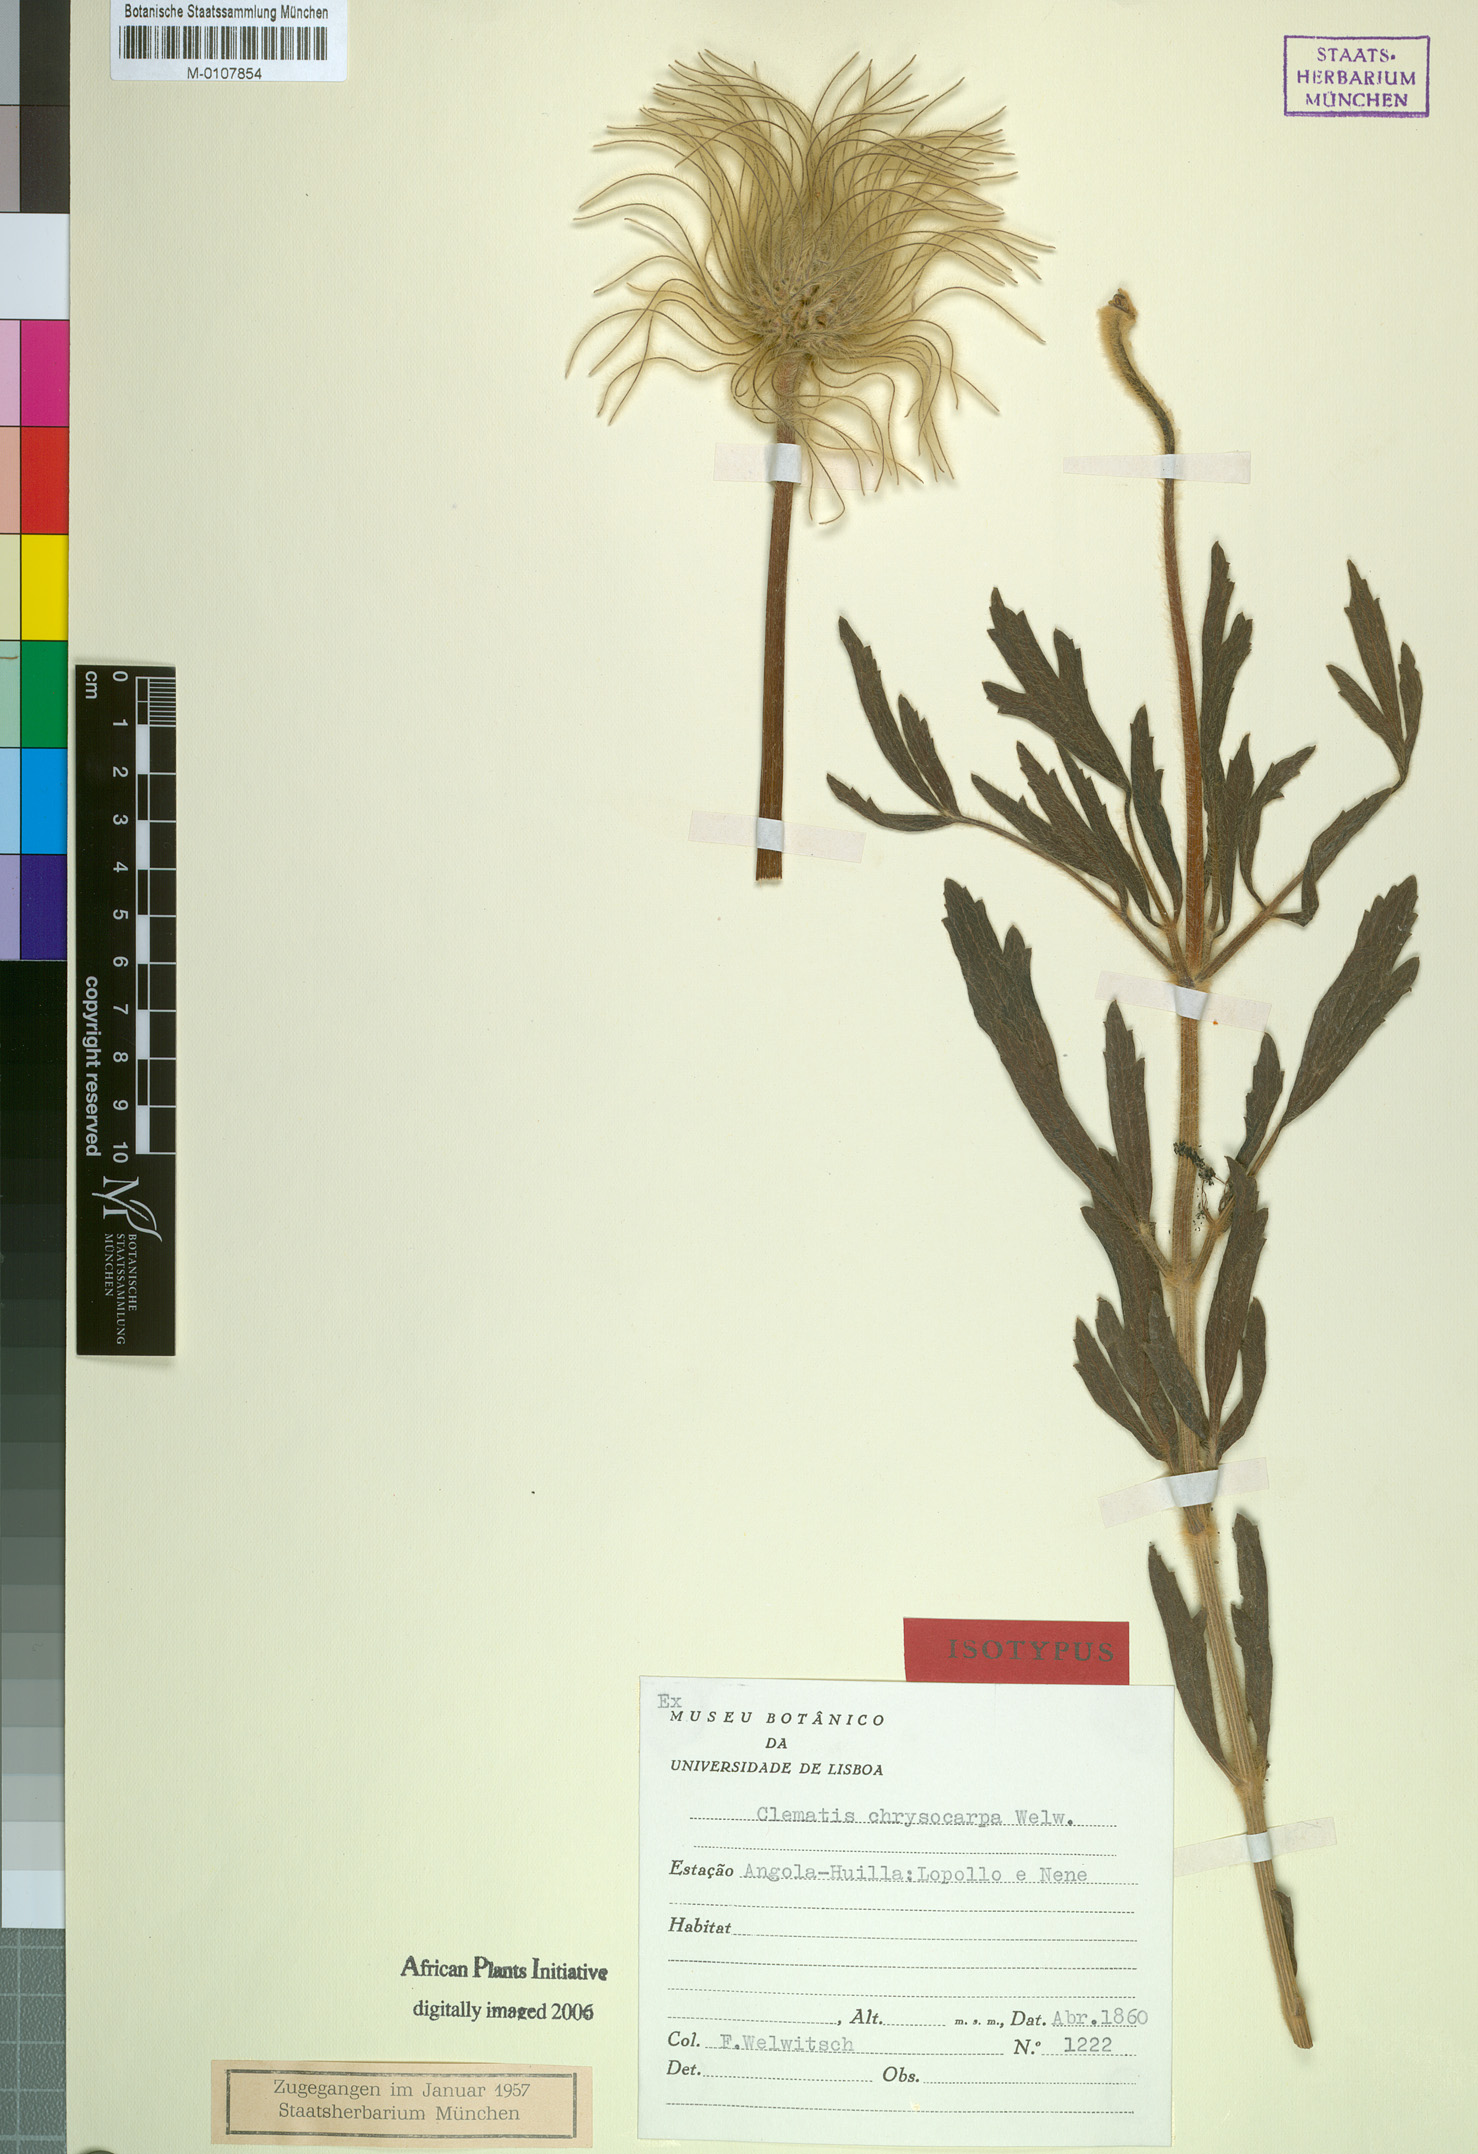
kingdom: Plantae
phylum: Tracheophyta
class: Magnoliopsida
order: Ranunculales
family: Ranunculaceae
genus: Clematis
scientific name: Clematis chrysocarpa
